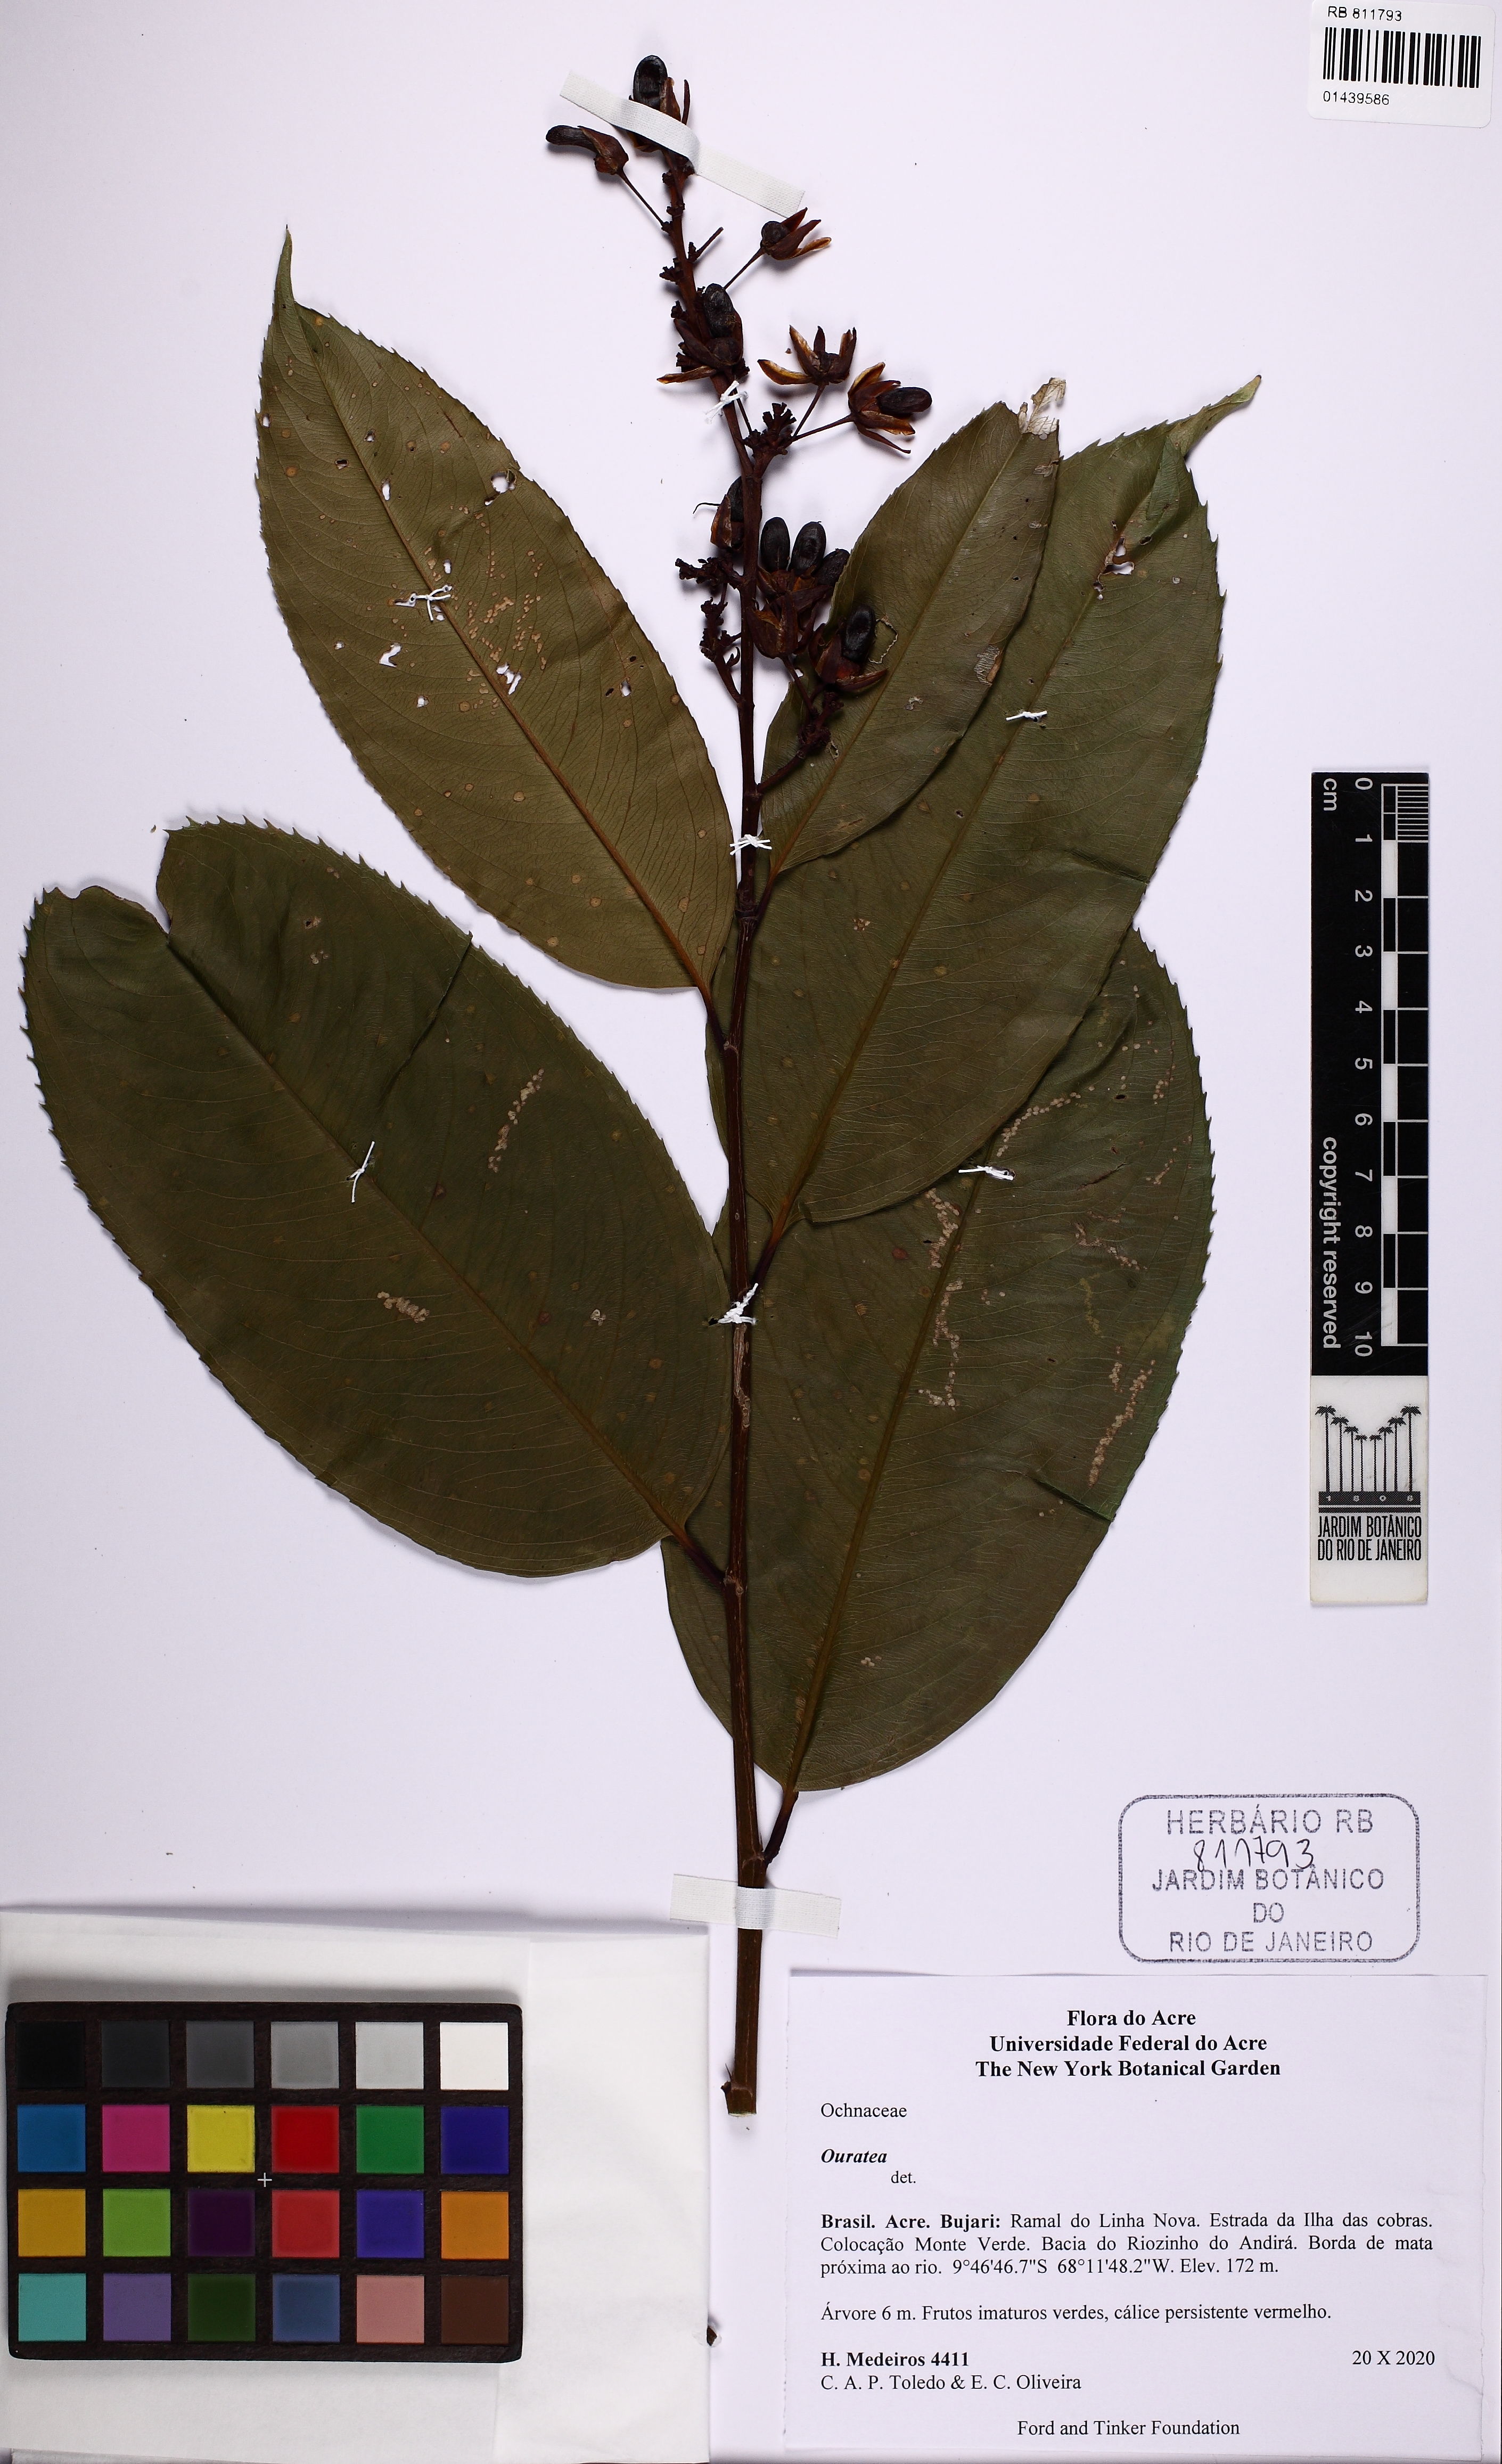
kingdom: Plantae
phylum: Tracheophyta
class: Magnoliopsida
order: Malpighiales
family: Ochnaceae
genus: Ouratea
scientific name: Ouratea
